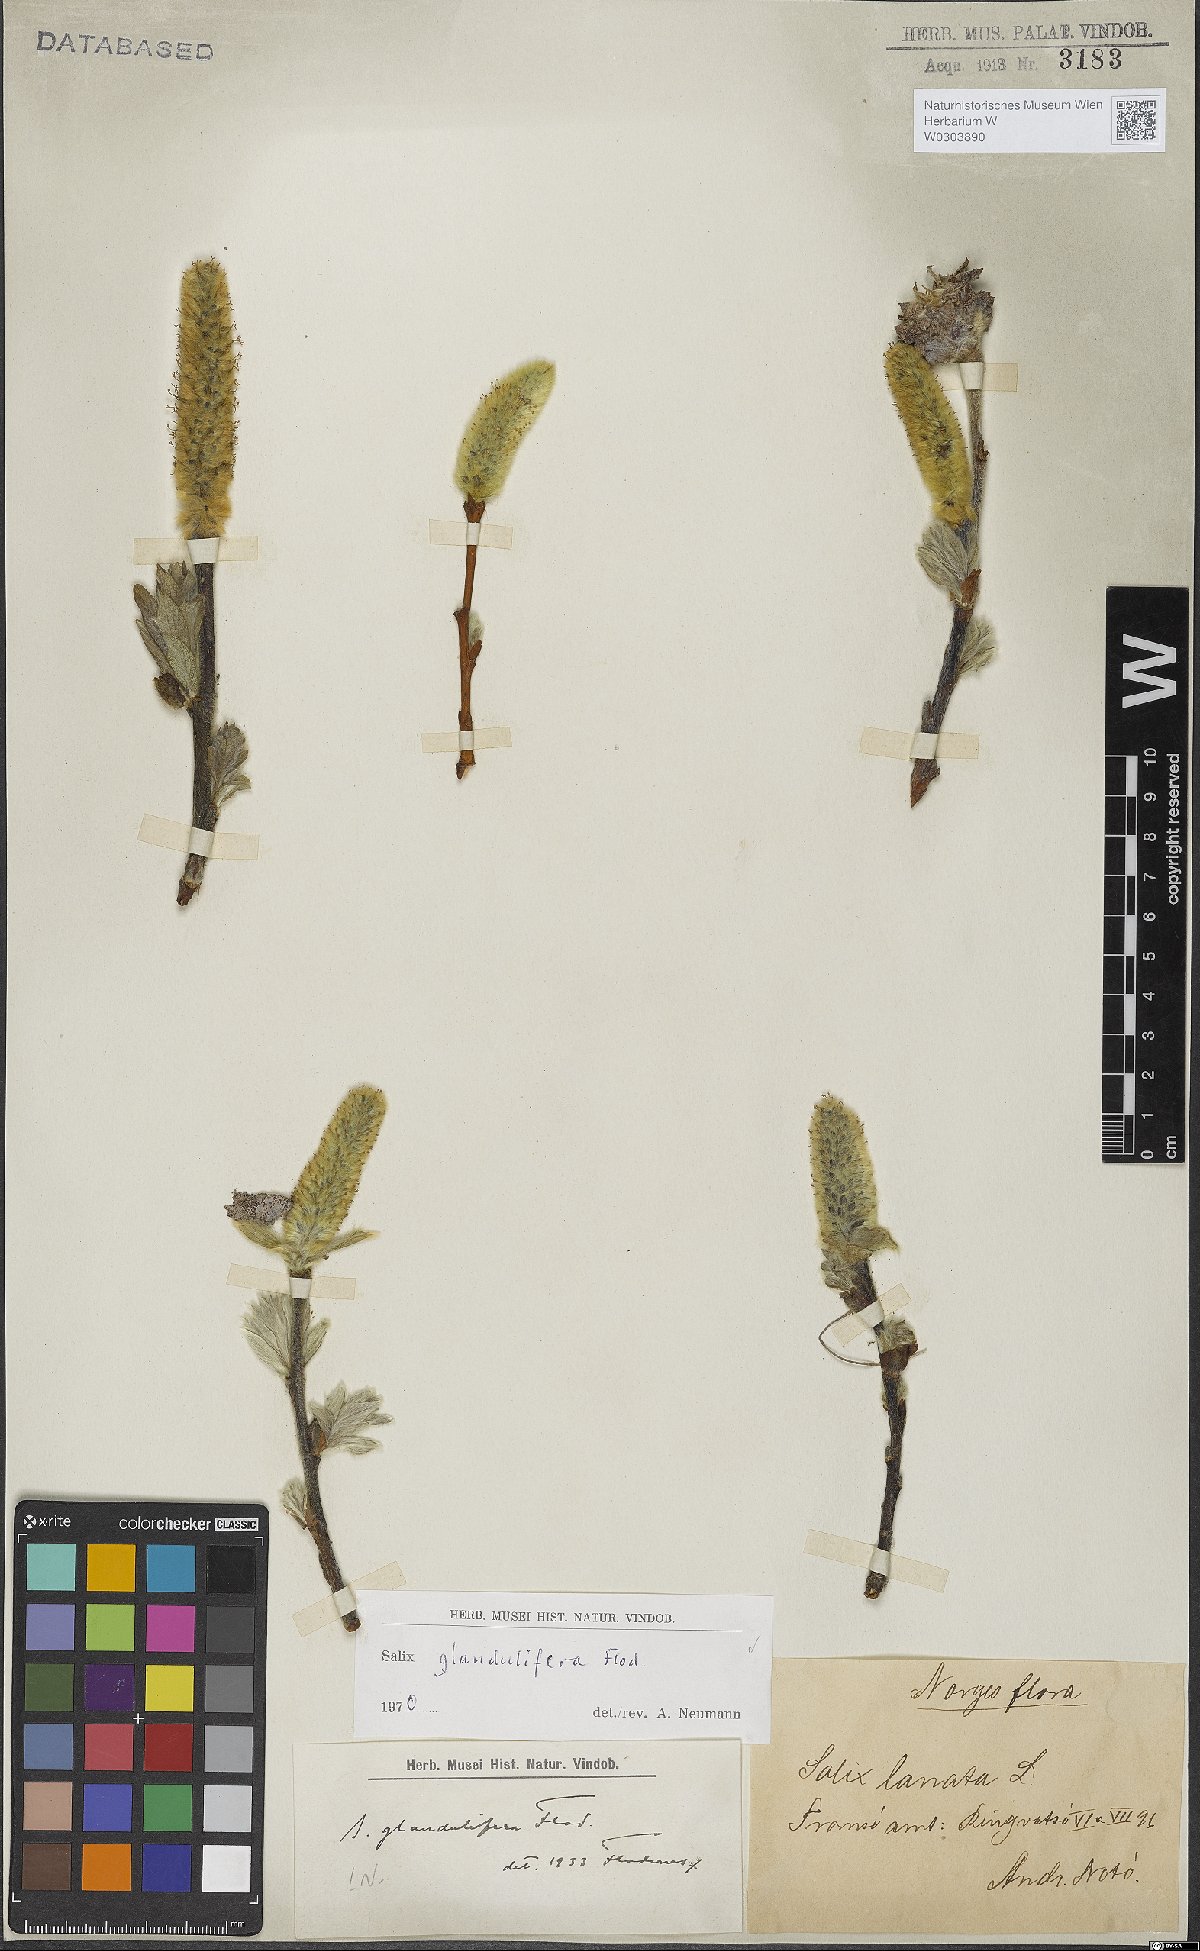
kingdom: Plantae
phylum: Tracheophyta
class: Magnoliopsida
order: Malpighiales
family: Salicaceae
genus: Salix
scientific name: Salix lanata
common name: Woolly willow
